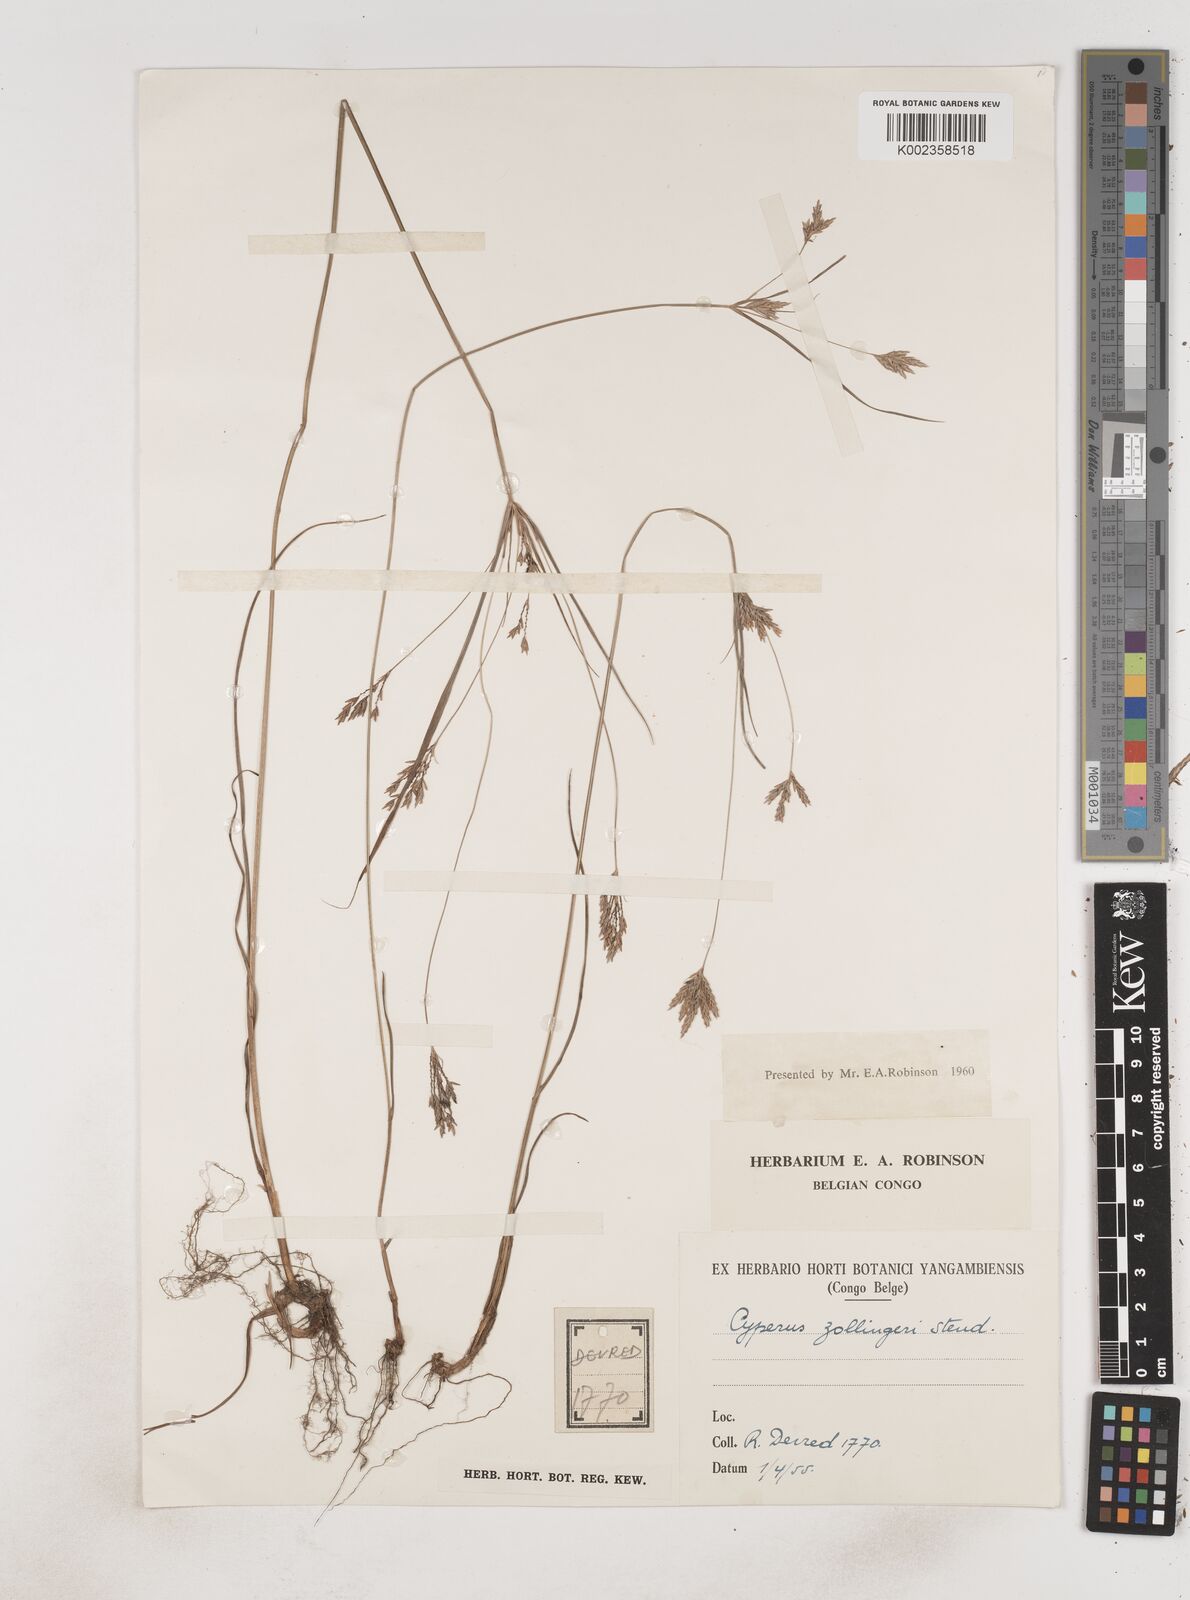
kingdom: Plantae
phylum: Tracheophyta
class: Liliopsida
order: Poales
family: Cyperaceae
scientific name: Cyperaceae
